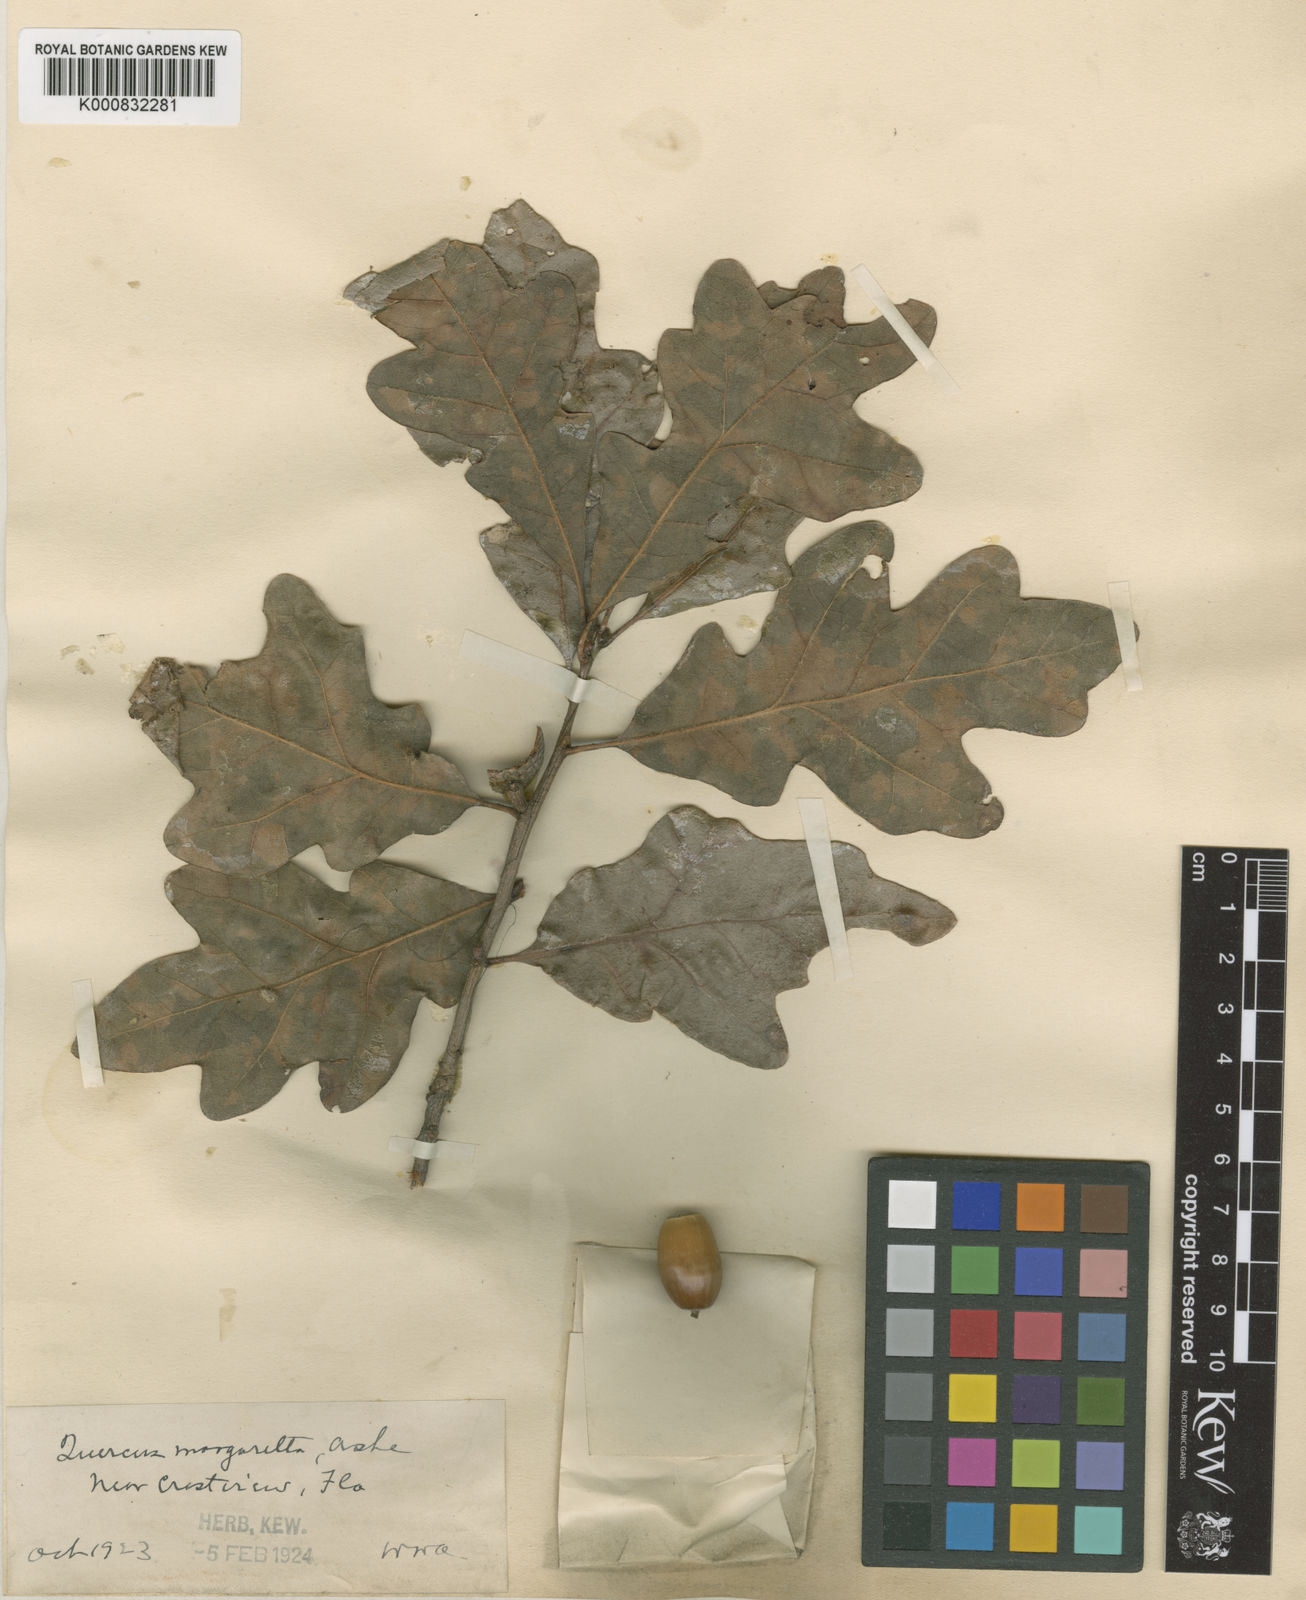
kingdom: Plantae
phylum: Tracheophyta
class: Magnoliopsida
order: Fagales
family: Fagaceae
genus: Quercus
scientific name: Quercus margarettae
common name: Dwarf post oak
